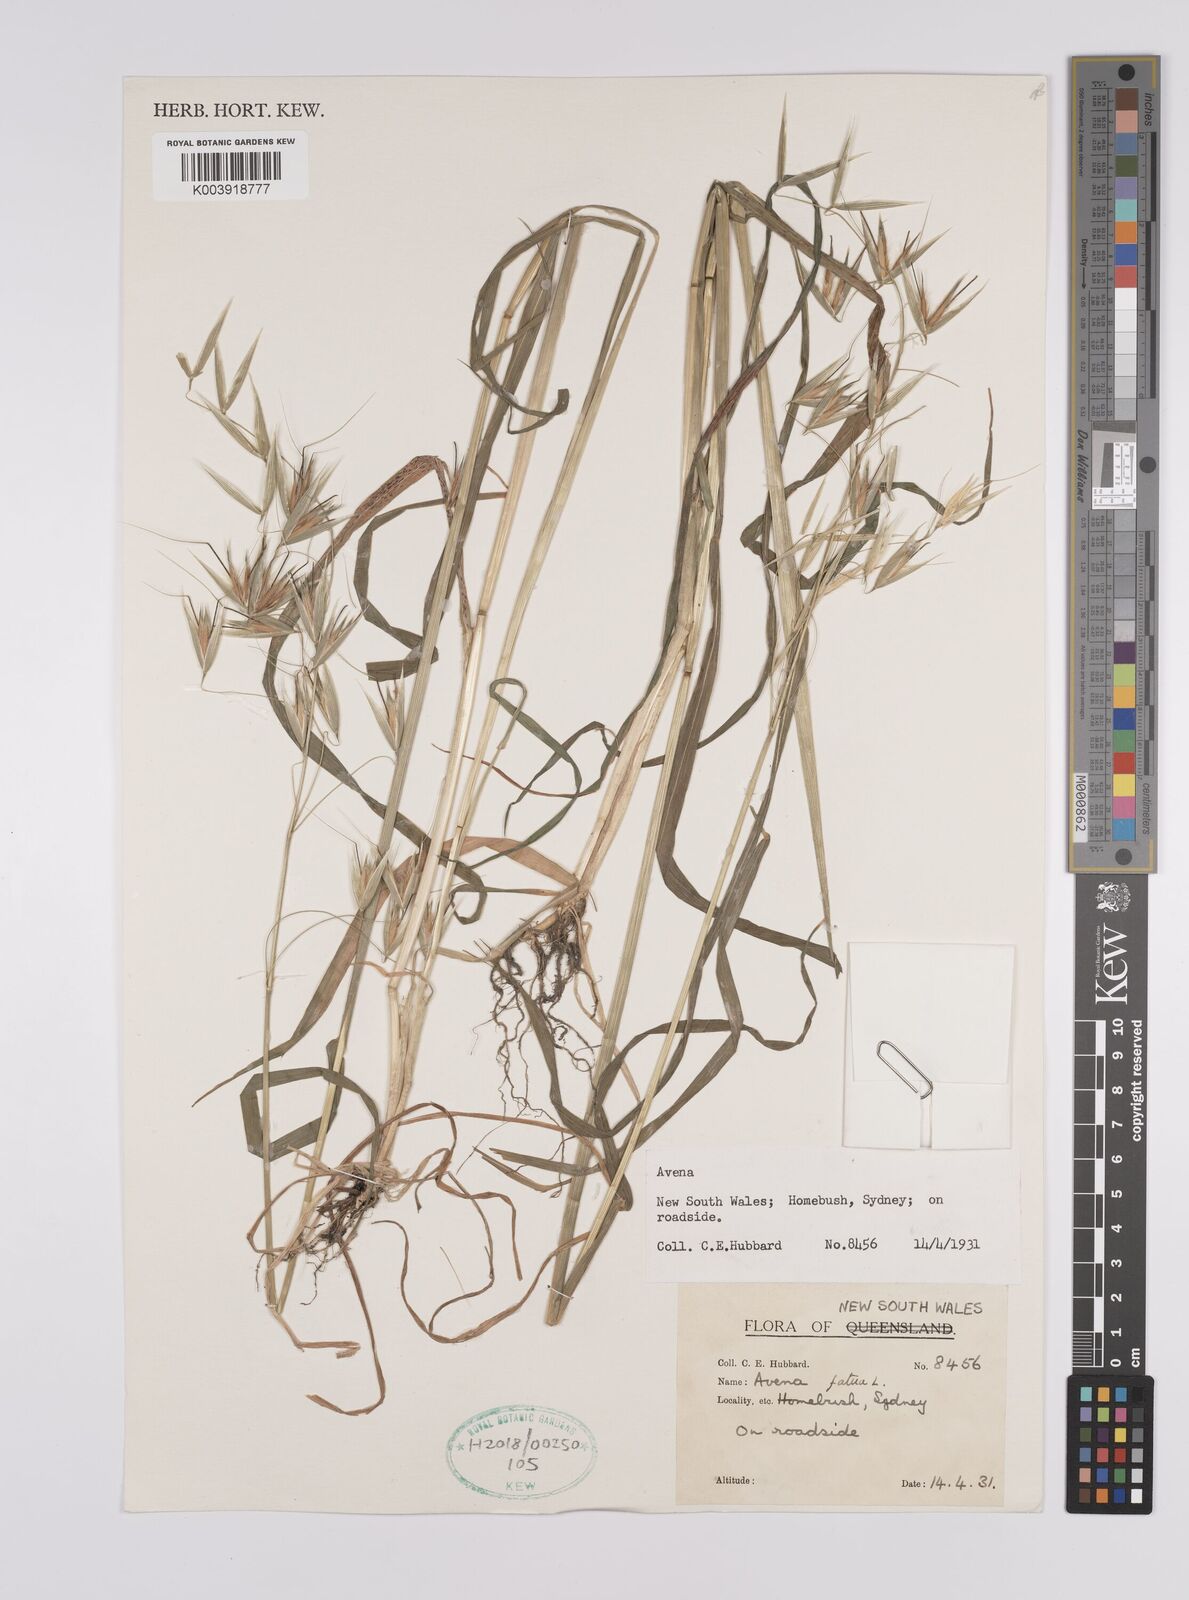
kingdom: Plantae
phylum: Tracheophyta
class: Liliopsida
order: Poales
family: Poaceae
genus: Avena
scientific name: Avena fatua
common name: Wild oat
